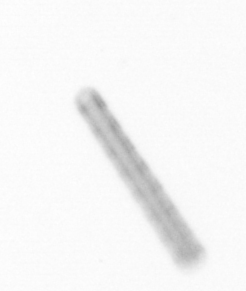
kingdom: Chromista
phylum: Ochrophyta
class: Bacillariophyceae
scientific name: Bacillariophyceae
